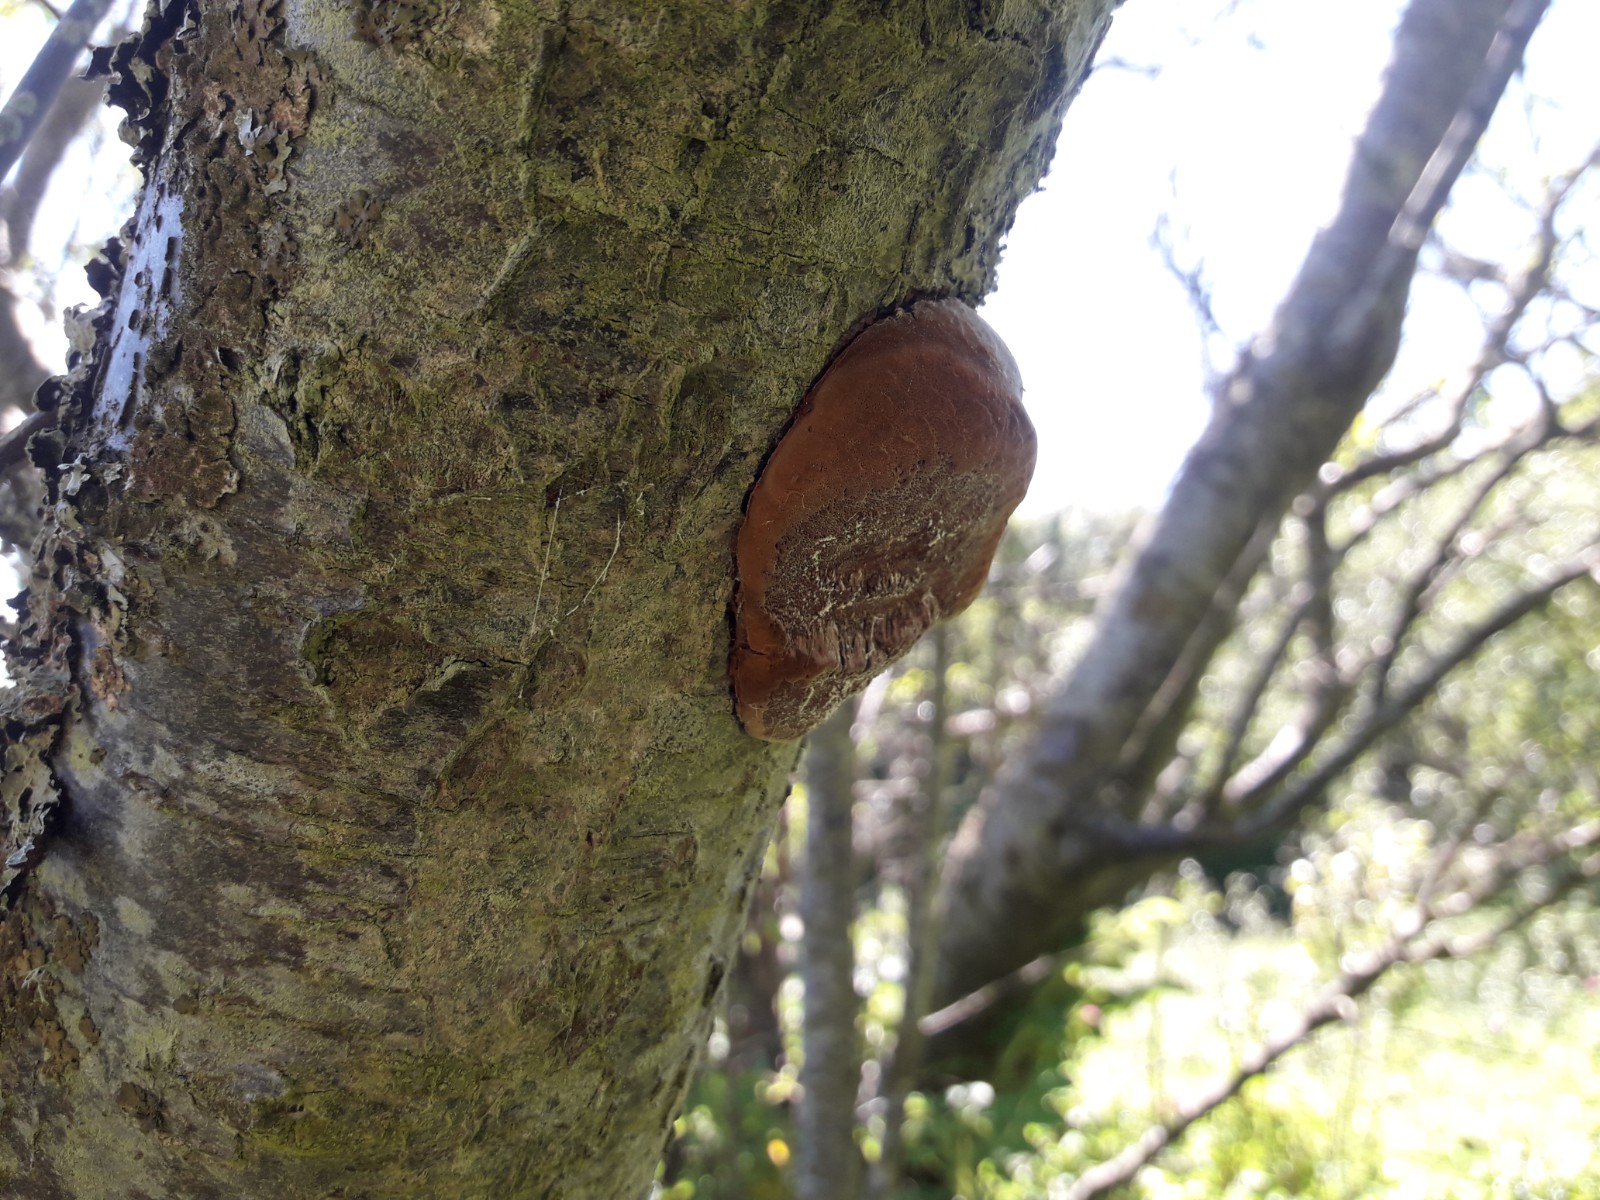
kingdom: Fungi
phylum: Basidiomycota
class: Agaricomycetes
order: Hymenochaetales
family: Hymenochaetaceae
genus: Phellinus
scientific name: Phellinus pomaceus
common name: blomme-ildporesvamp
